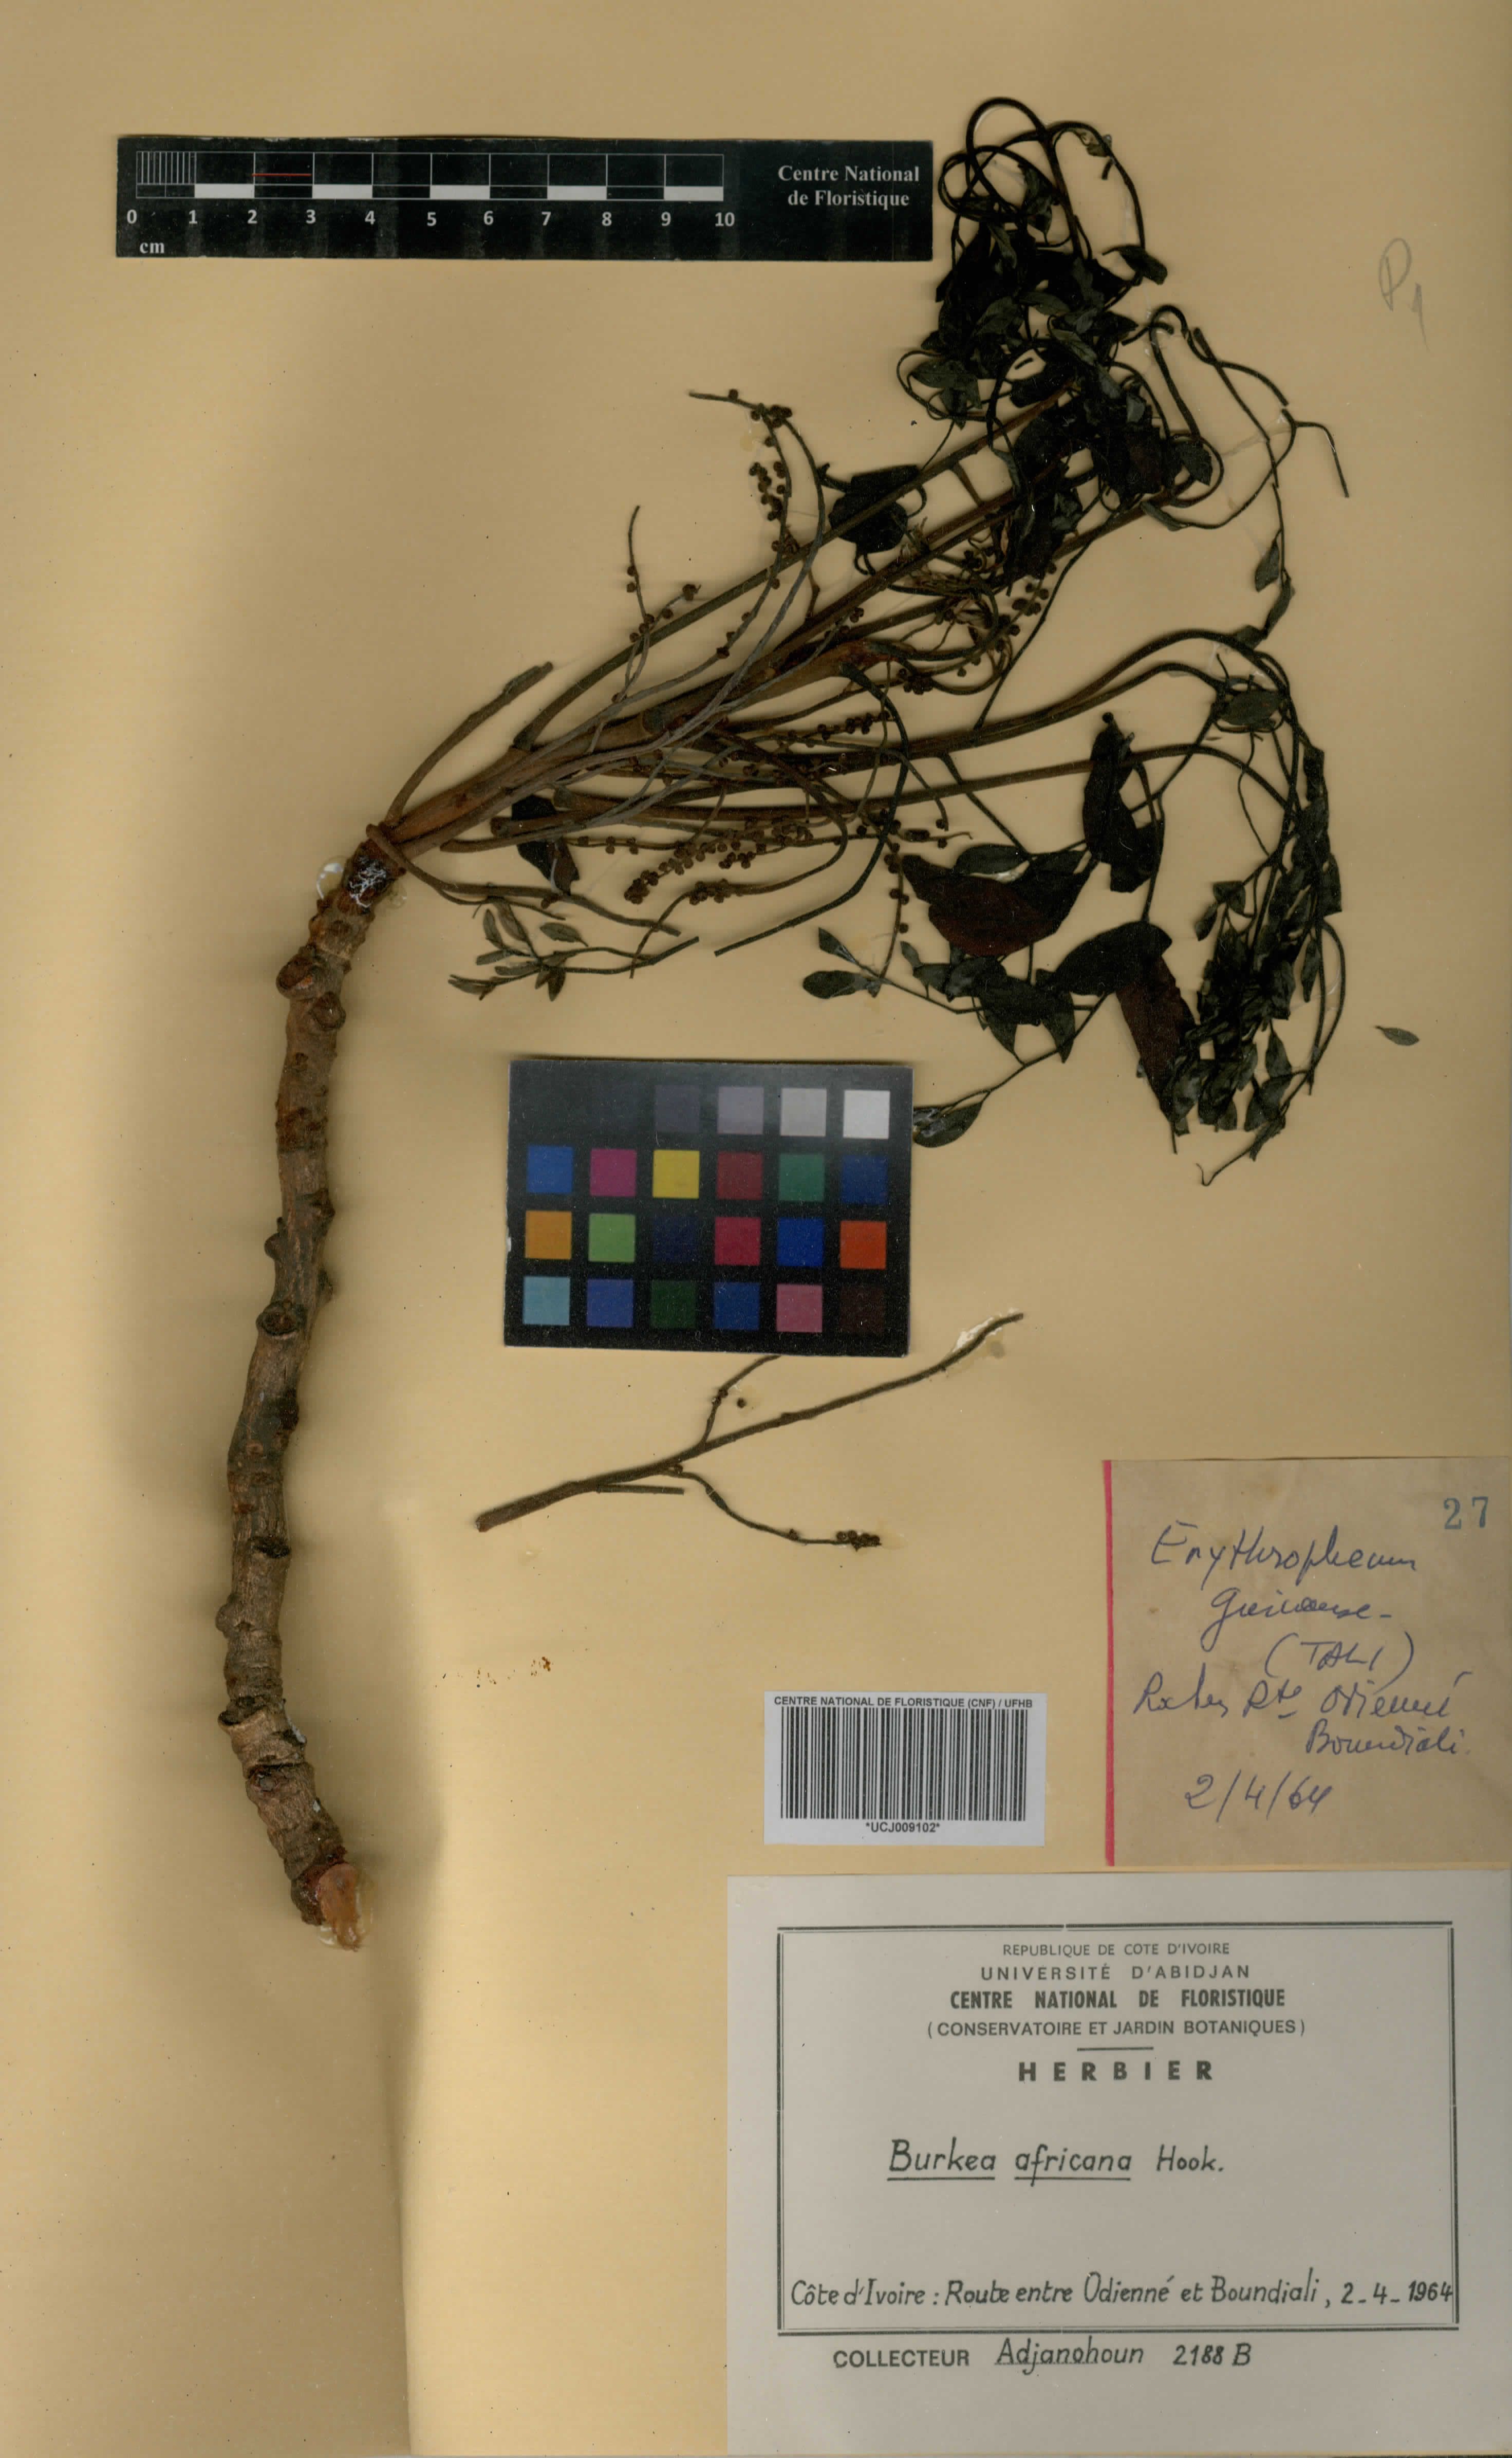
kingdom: Plantae
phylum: Tracheophyta
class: Magnoliopsida
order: Fabales
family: Fabaceae
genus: Burkea
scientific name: Burkea africana
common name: Mkalati tree
